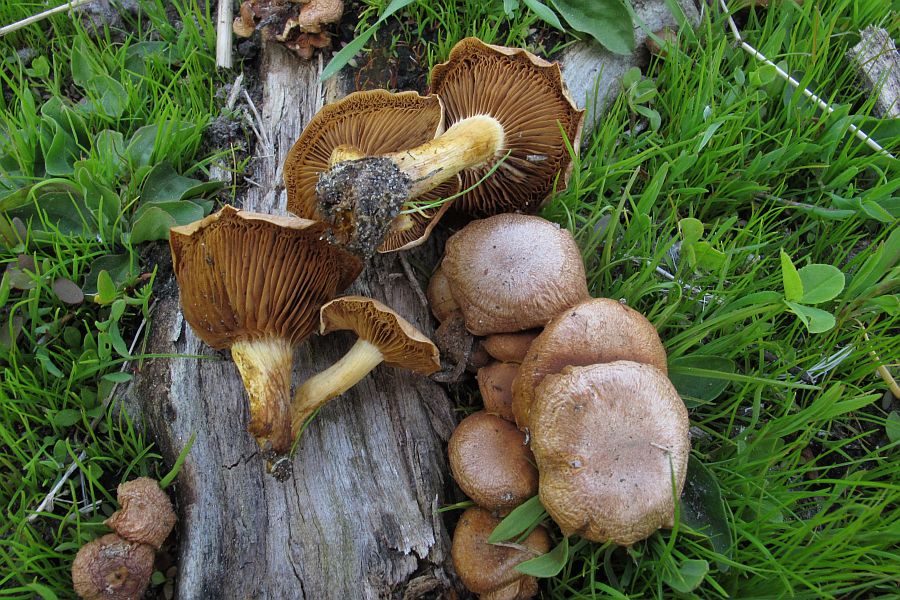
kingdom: Fungi
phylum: Basidiomycota
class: Agaricomycetes
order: Agaricales
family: Strophariaceae
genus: Pholiota
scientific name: Pholiota conissans
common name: pile-skælhat
